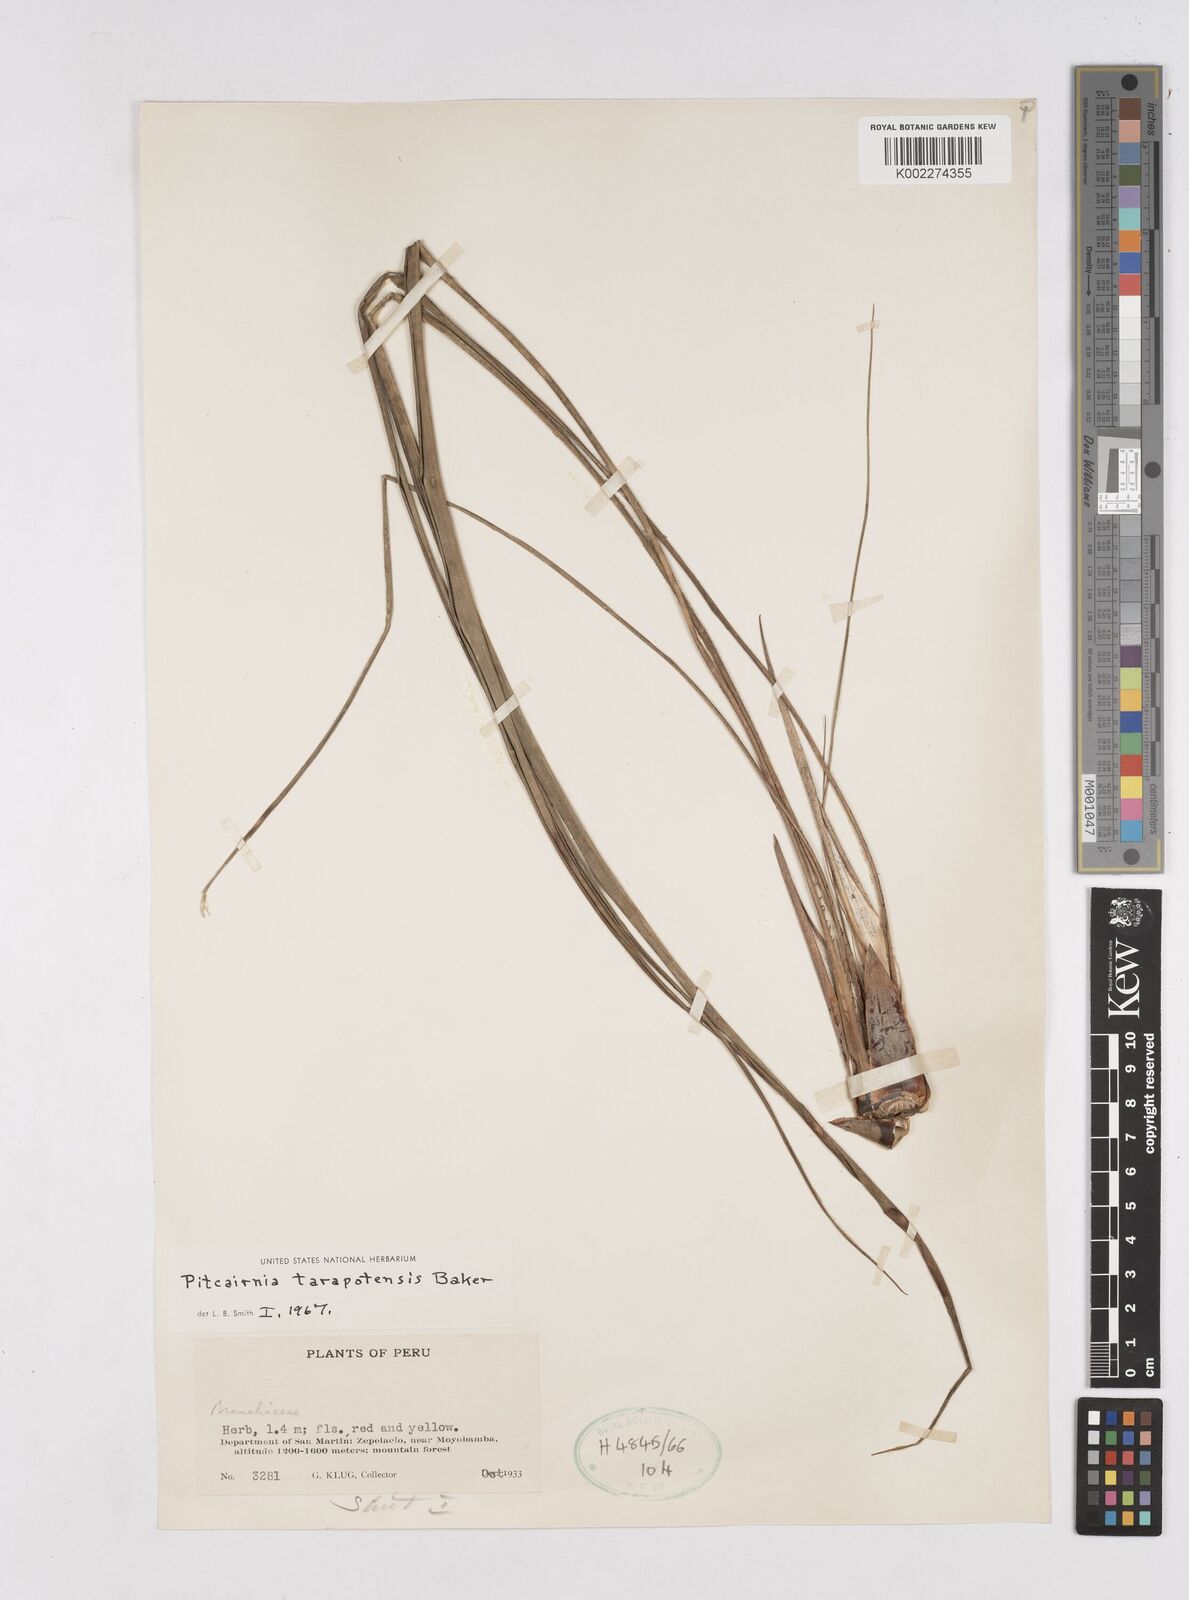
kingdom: Plantae
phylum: Tracheophyta
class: Liliopsida
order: Poales
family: Bromeliaceae
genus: Pitcairnia
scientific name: Pitcairnia tarapotensis
